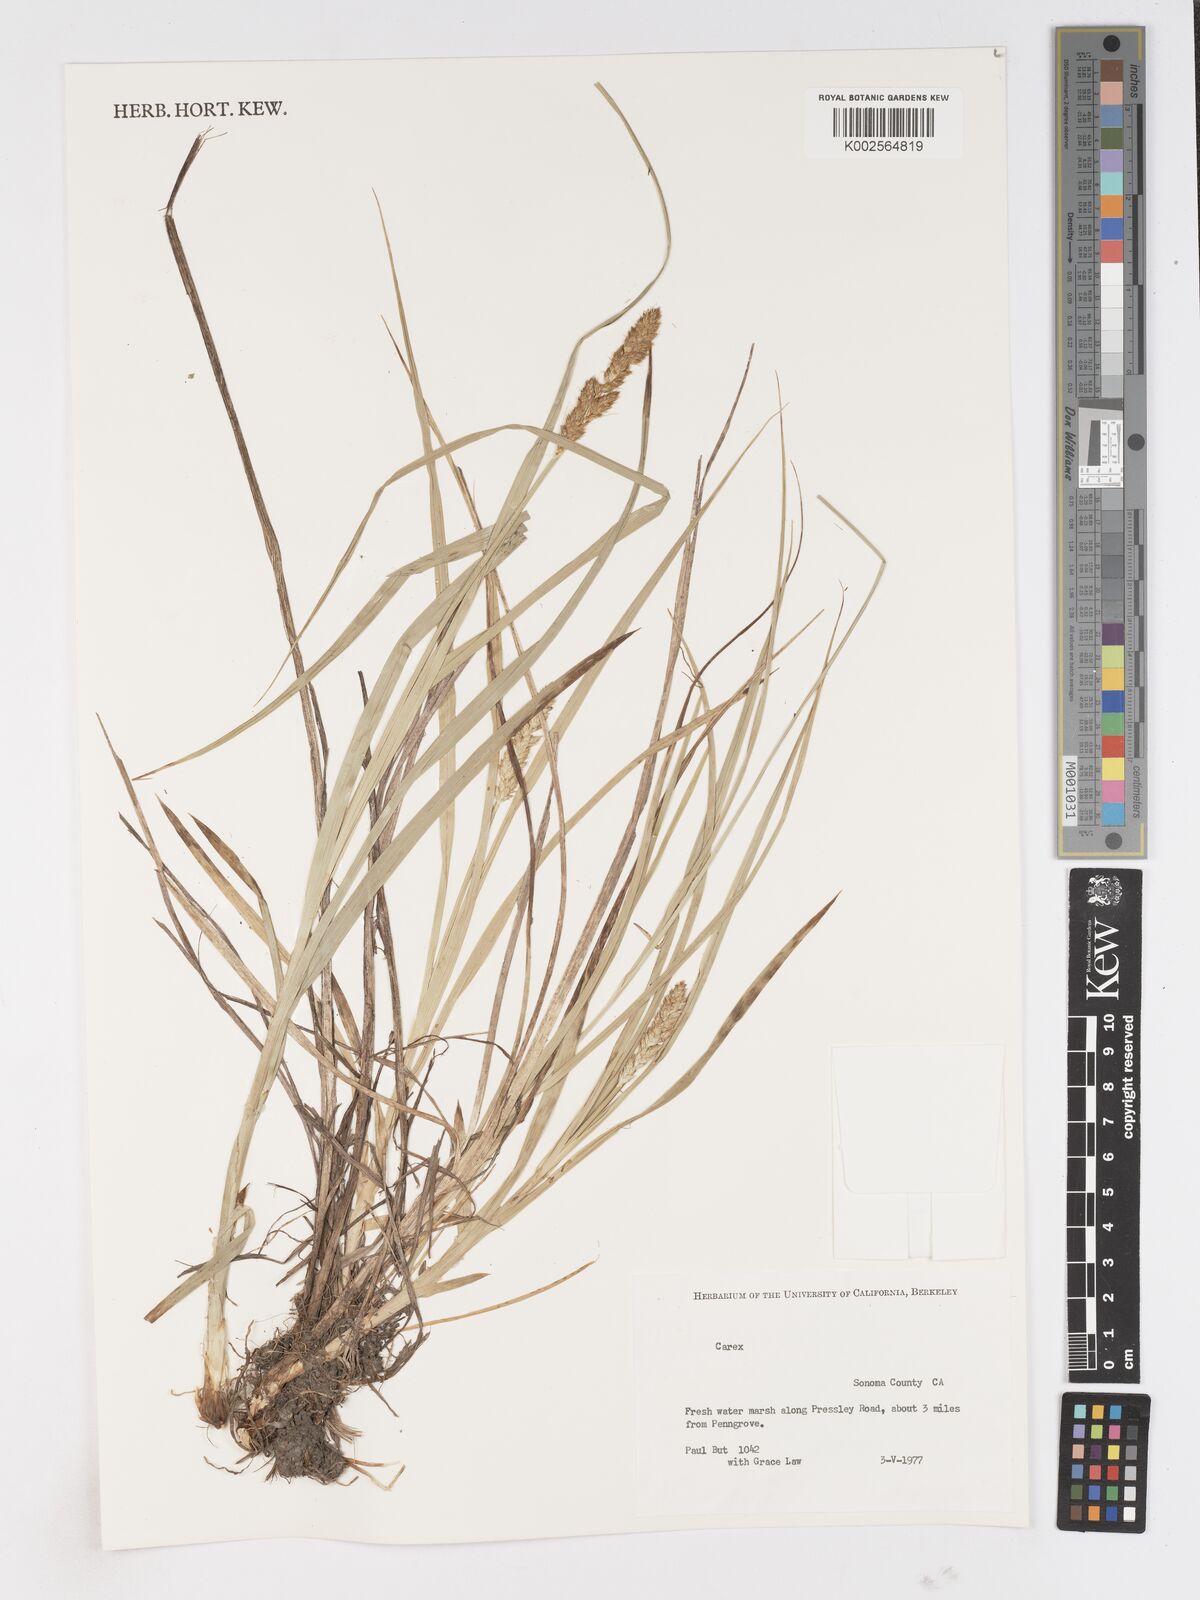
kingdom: Plantae
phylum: Tracheophyta
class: Liliopsida
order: Poales
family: Cyperaceae
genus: Carex
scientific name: Carex
